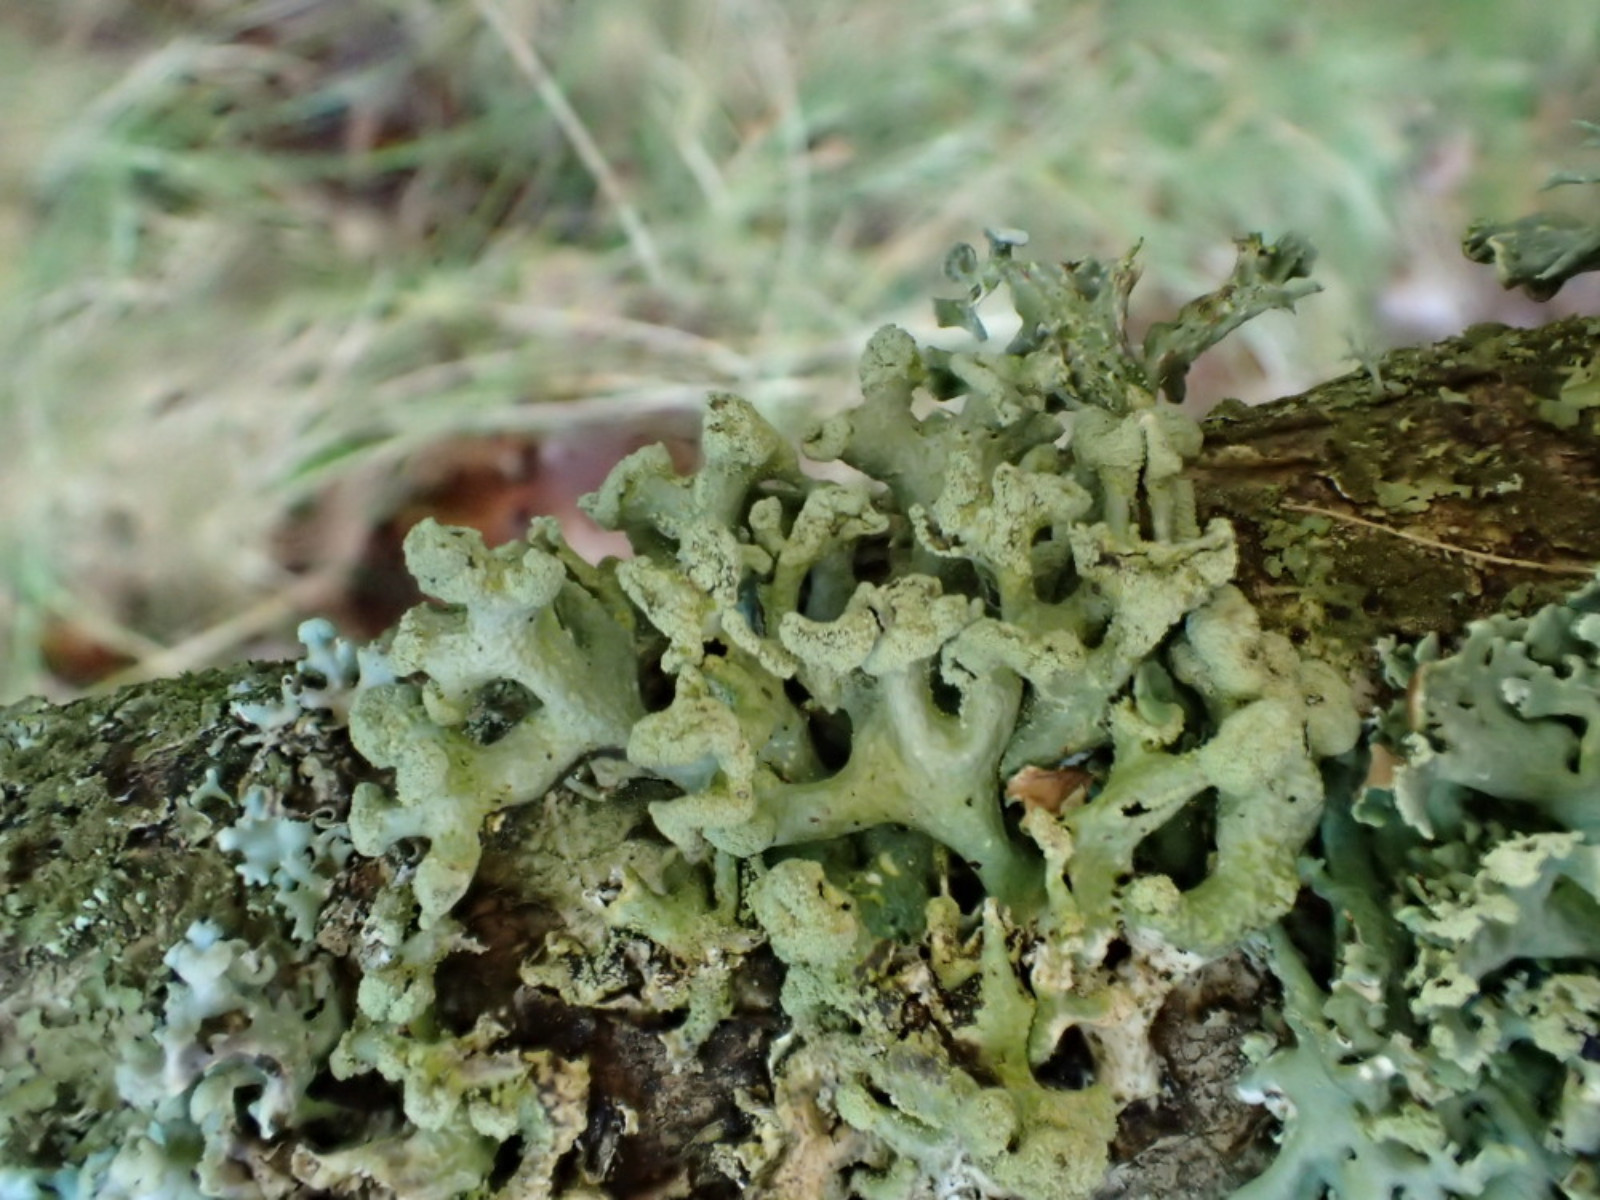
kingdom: Fungi
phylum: Ascomycota
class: Lecanoromycetes
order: Lecanorales
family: Parmeliaceae
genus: Hypogymnia
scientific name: Hypogymnia tubulosa
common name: finger-kvistlav
